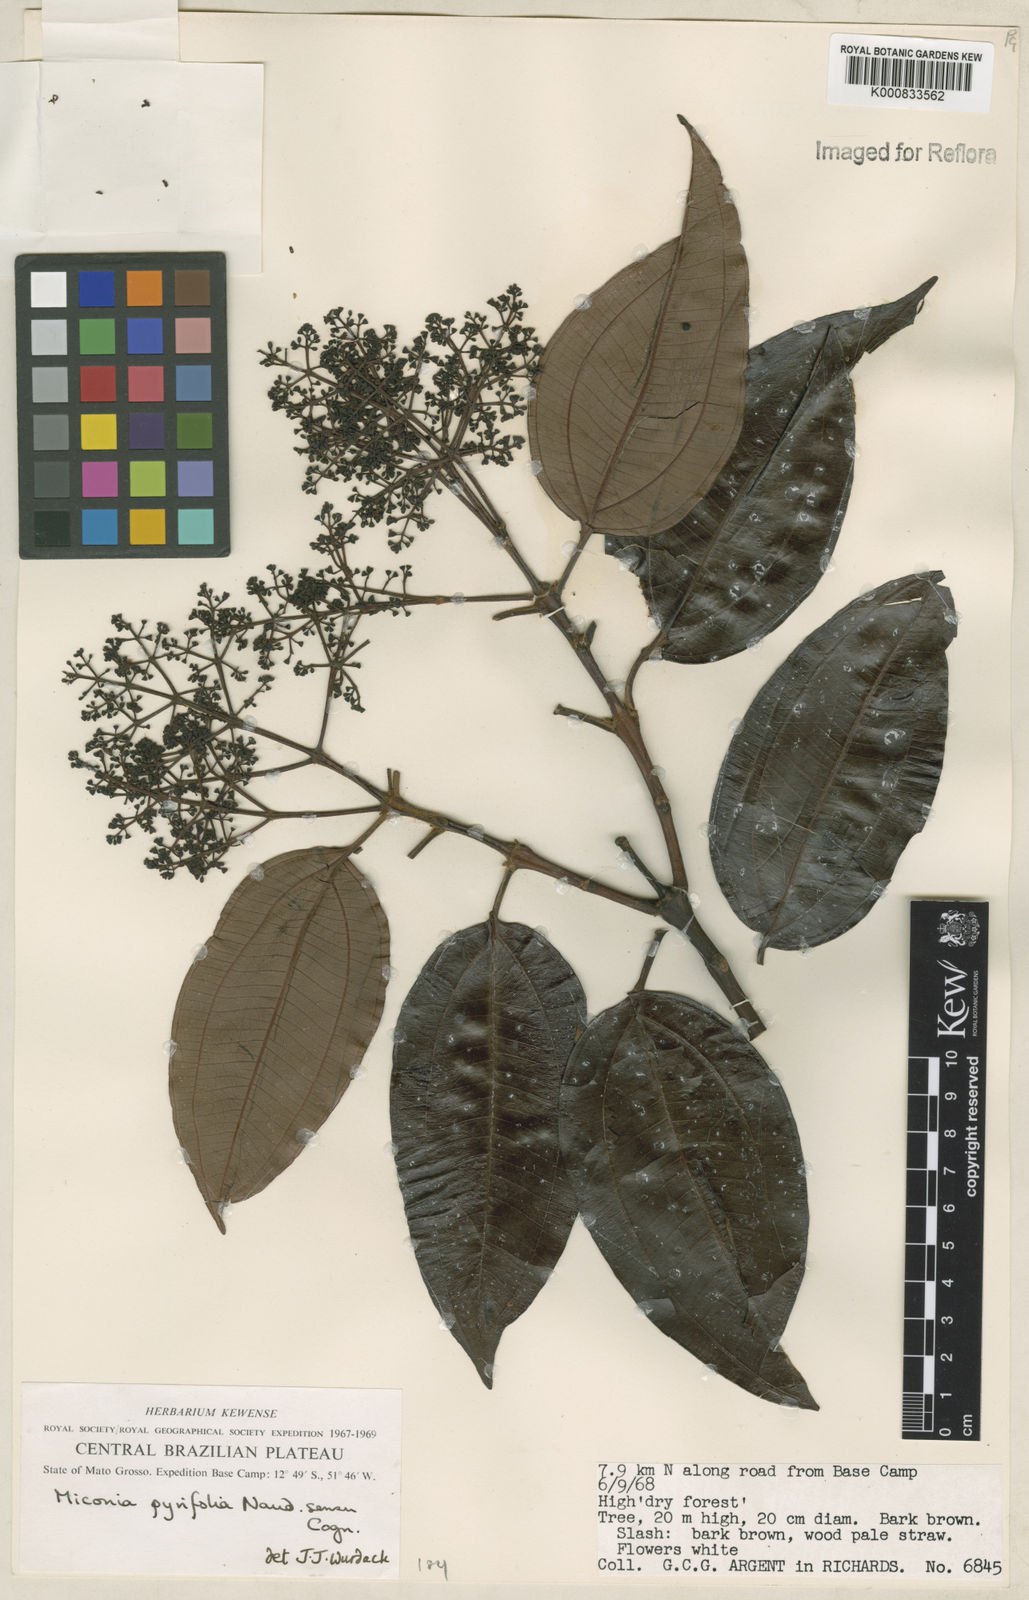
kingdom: Plantae
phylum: Tracheophyta
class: Magnoliopsida
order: Myrtales
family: Melastomataceae
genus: Miconia
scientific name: Miconia pyrifolia
